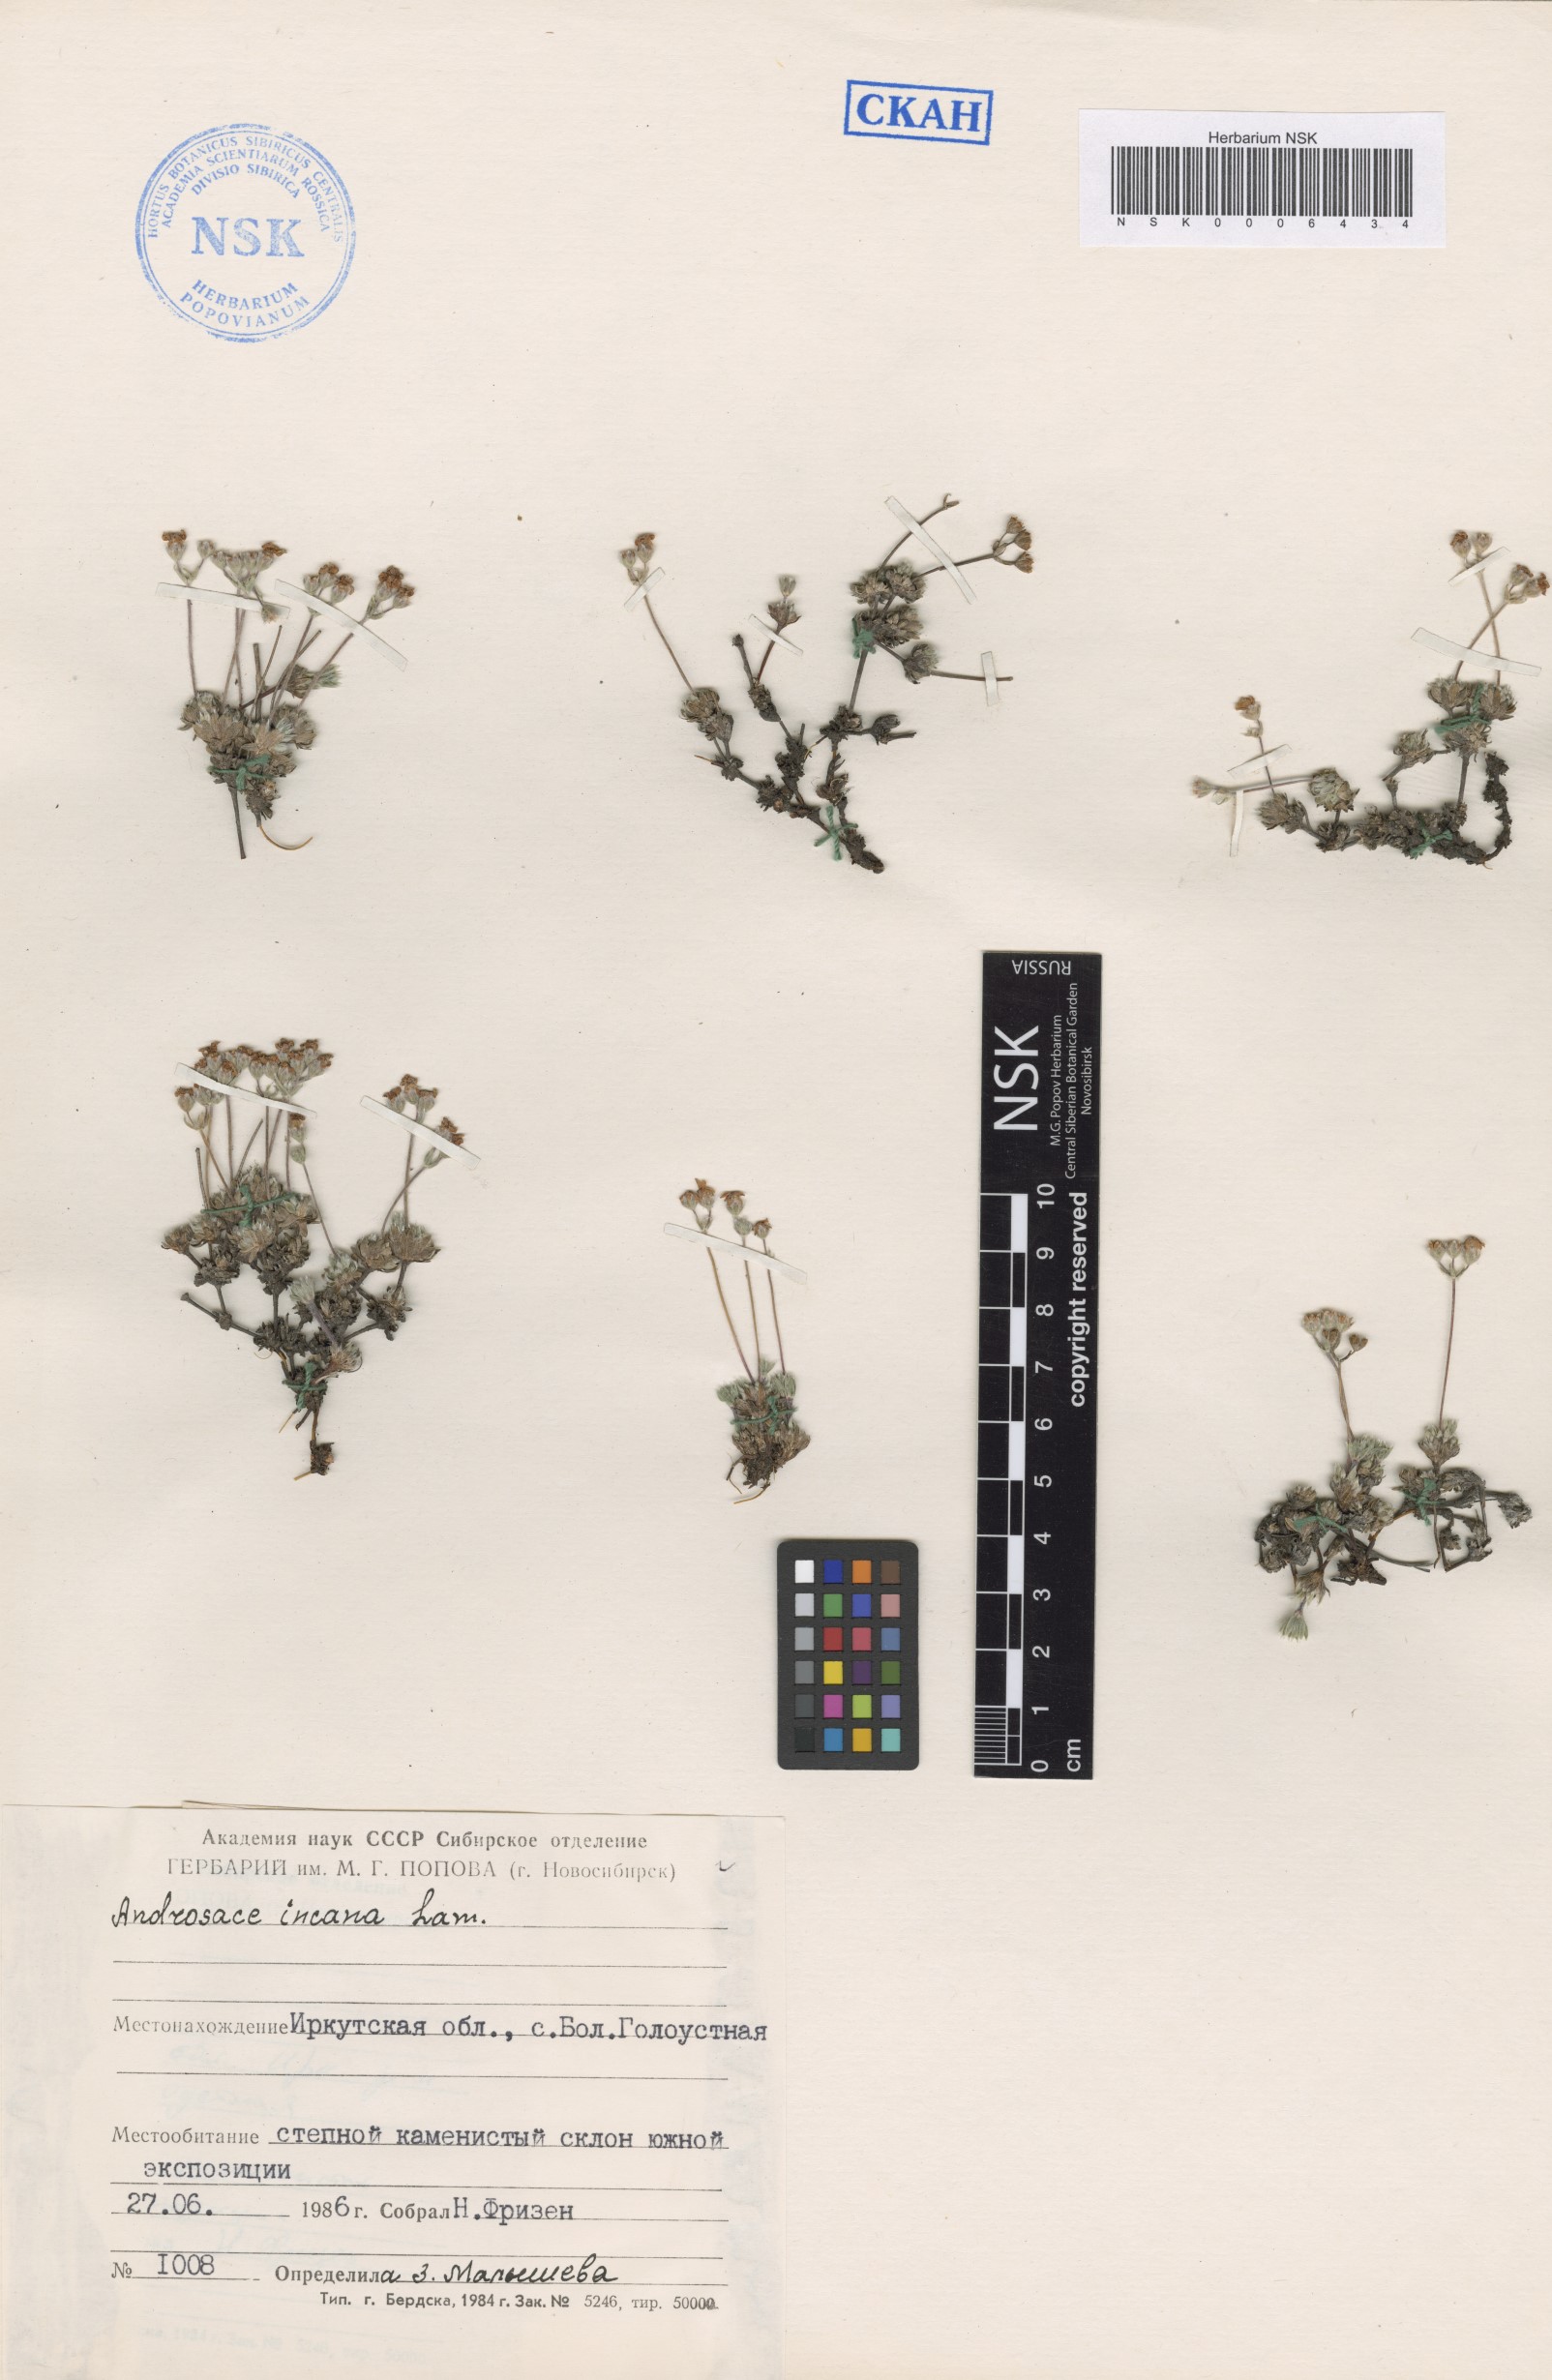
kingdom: Plantae
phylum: Tracheophyta
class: Magnoliopsida
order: Ericales
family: Primulaceae
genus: Androsace
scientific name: Androsace incana
